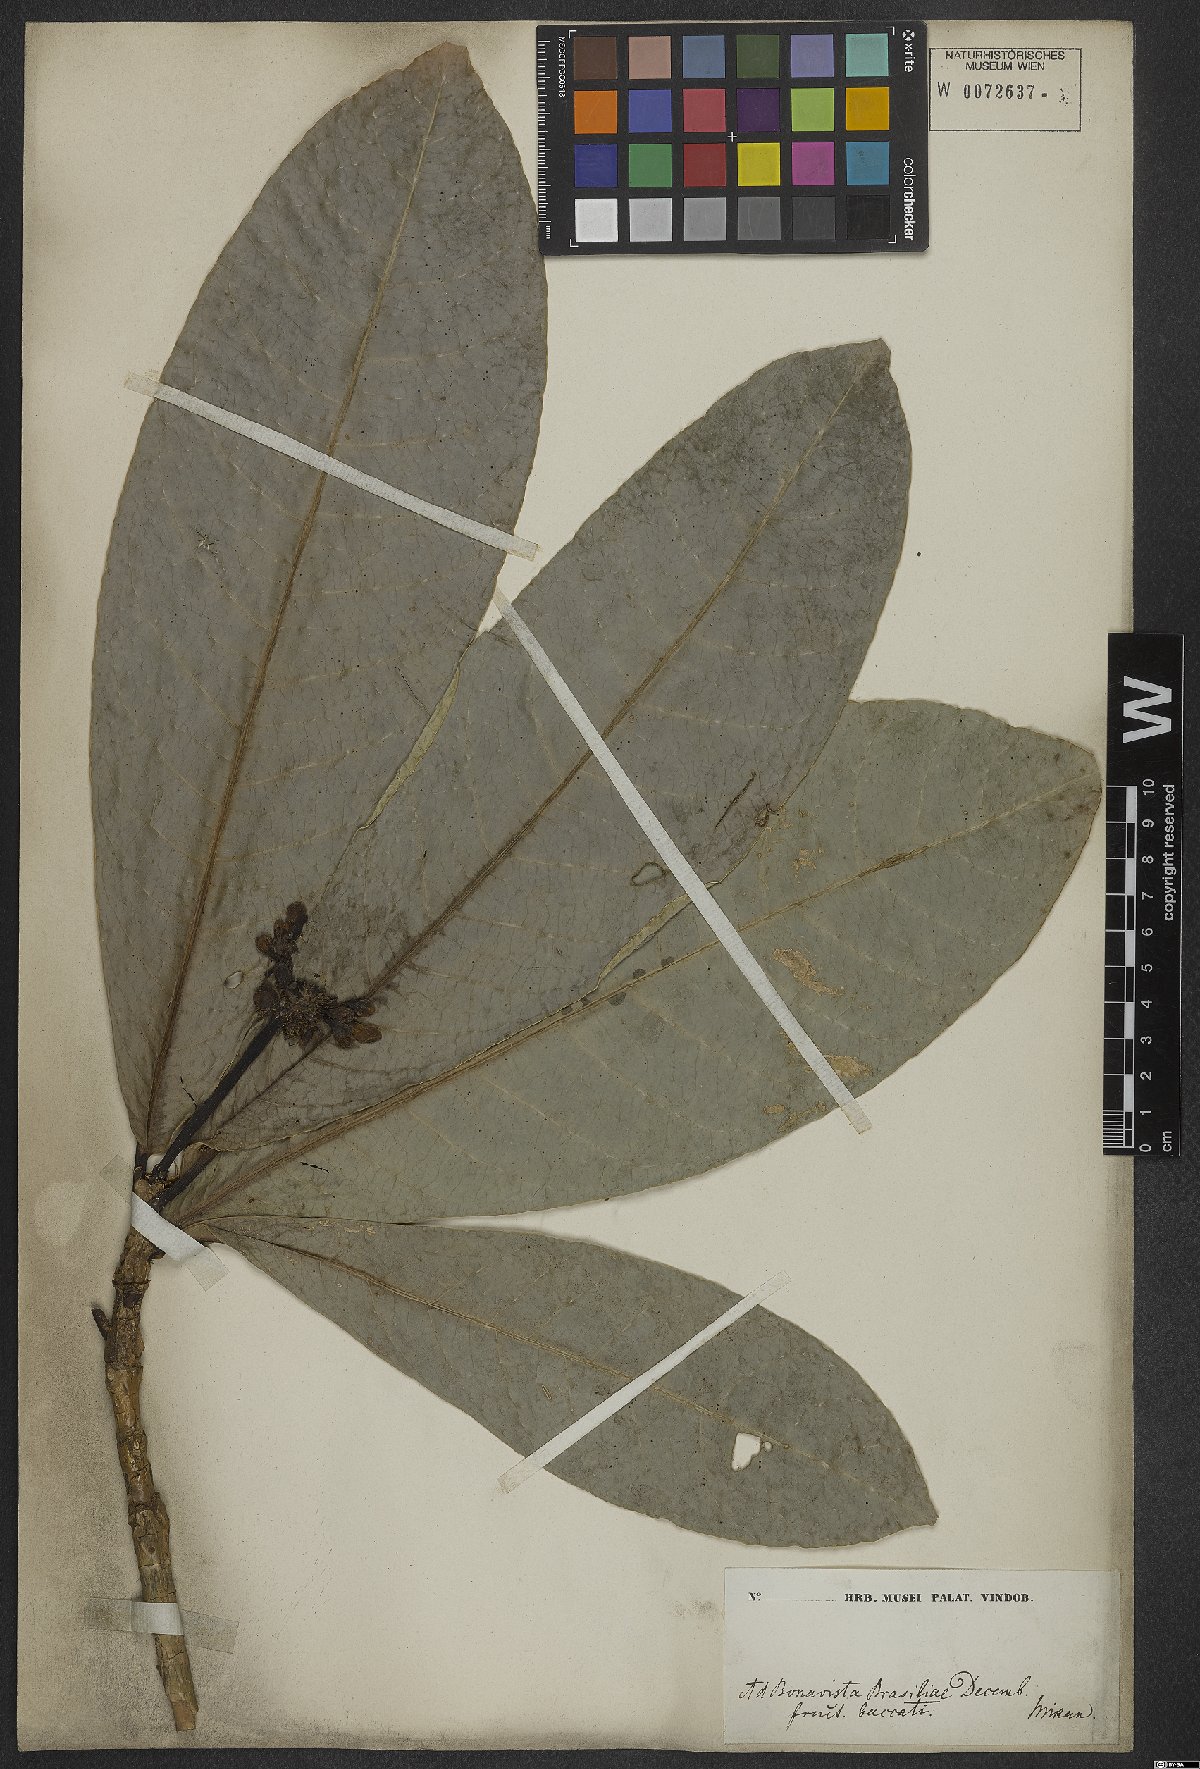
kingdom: Plantae
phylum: Tracheophyta
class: Magnoliopsida
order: Gentianales
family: Rubiaceae
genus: Rudgea
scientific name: Rudgea macrophylla
